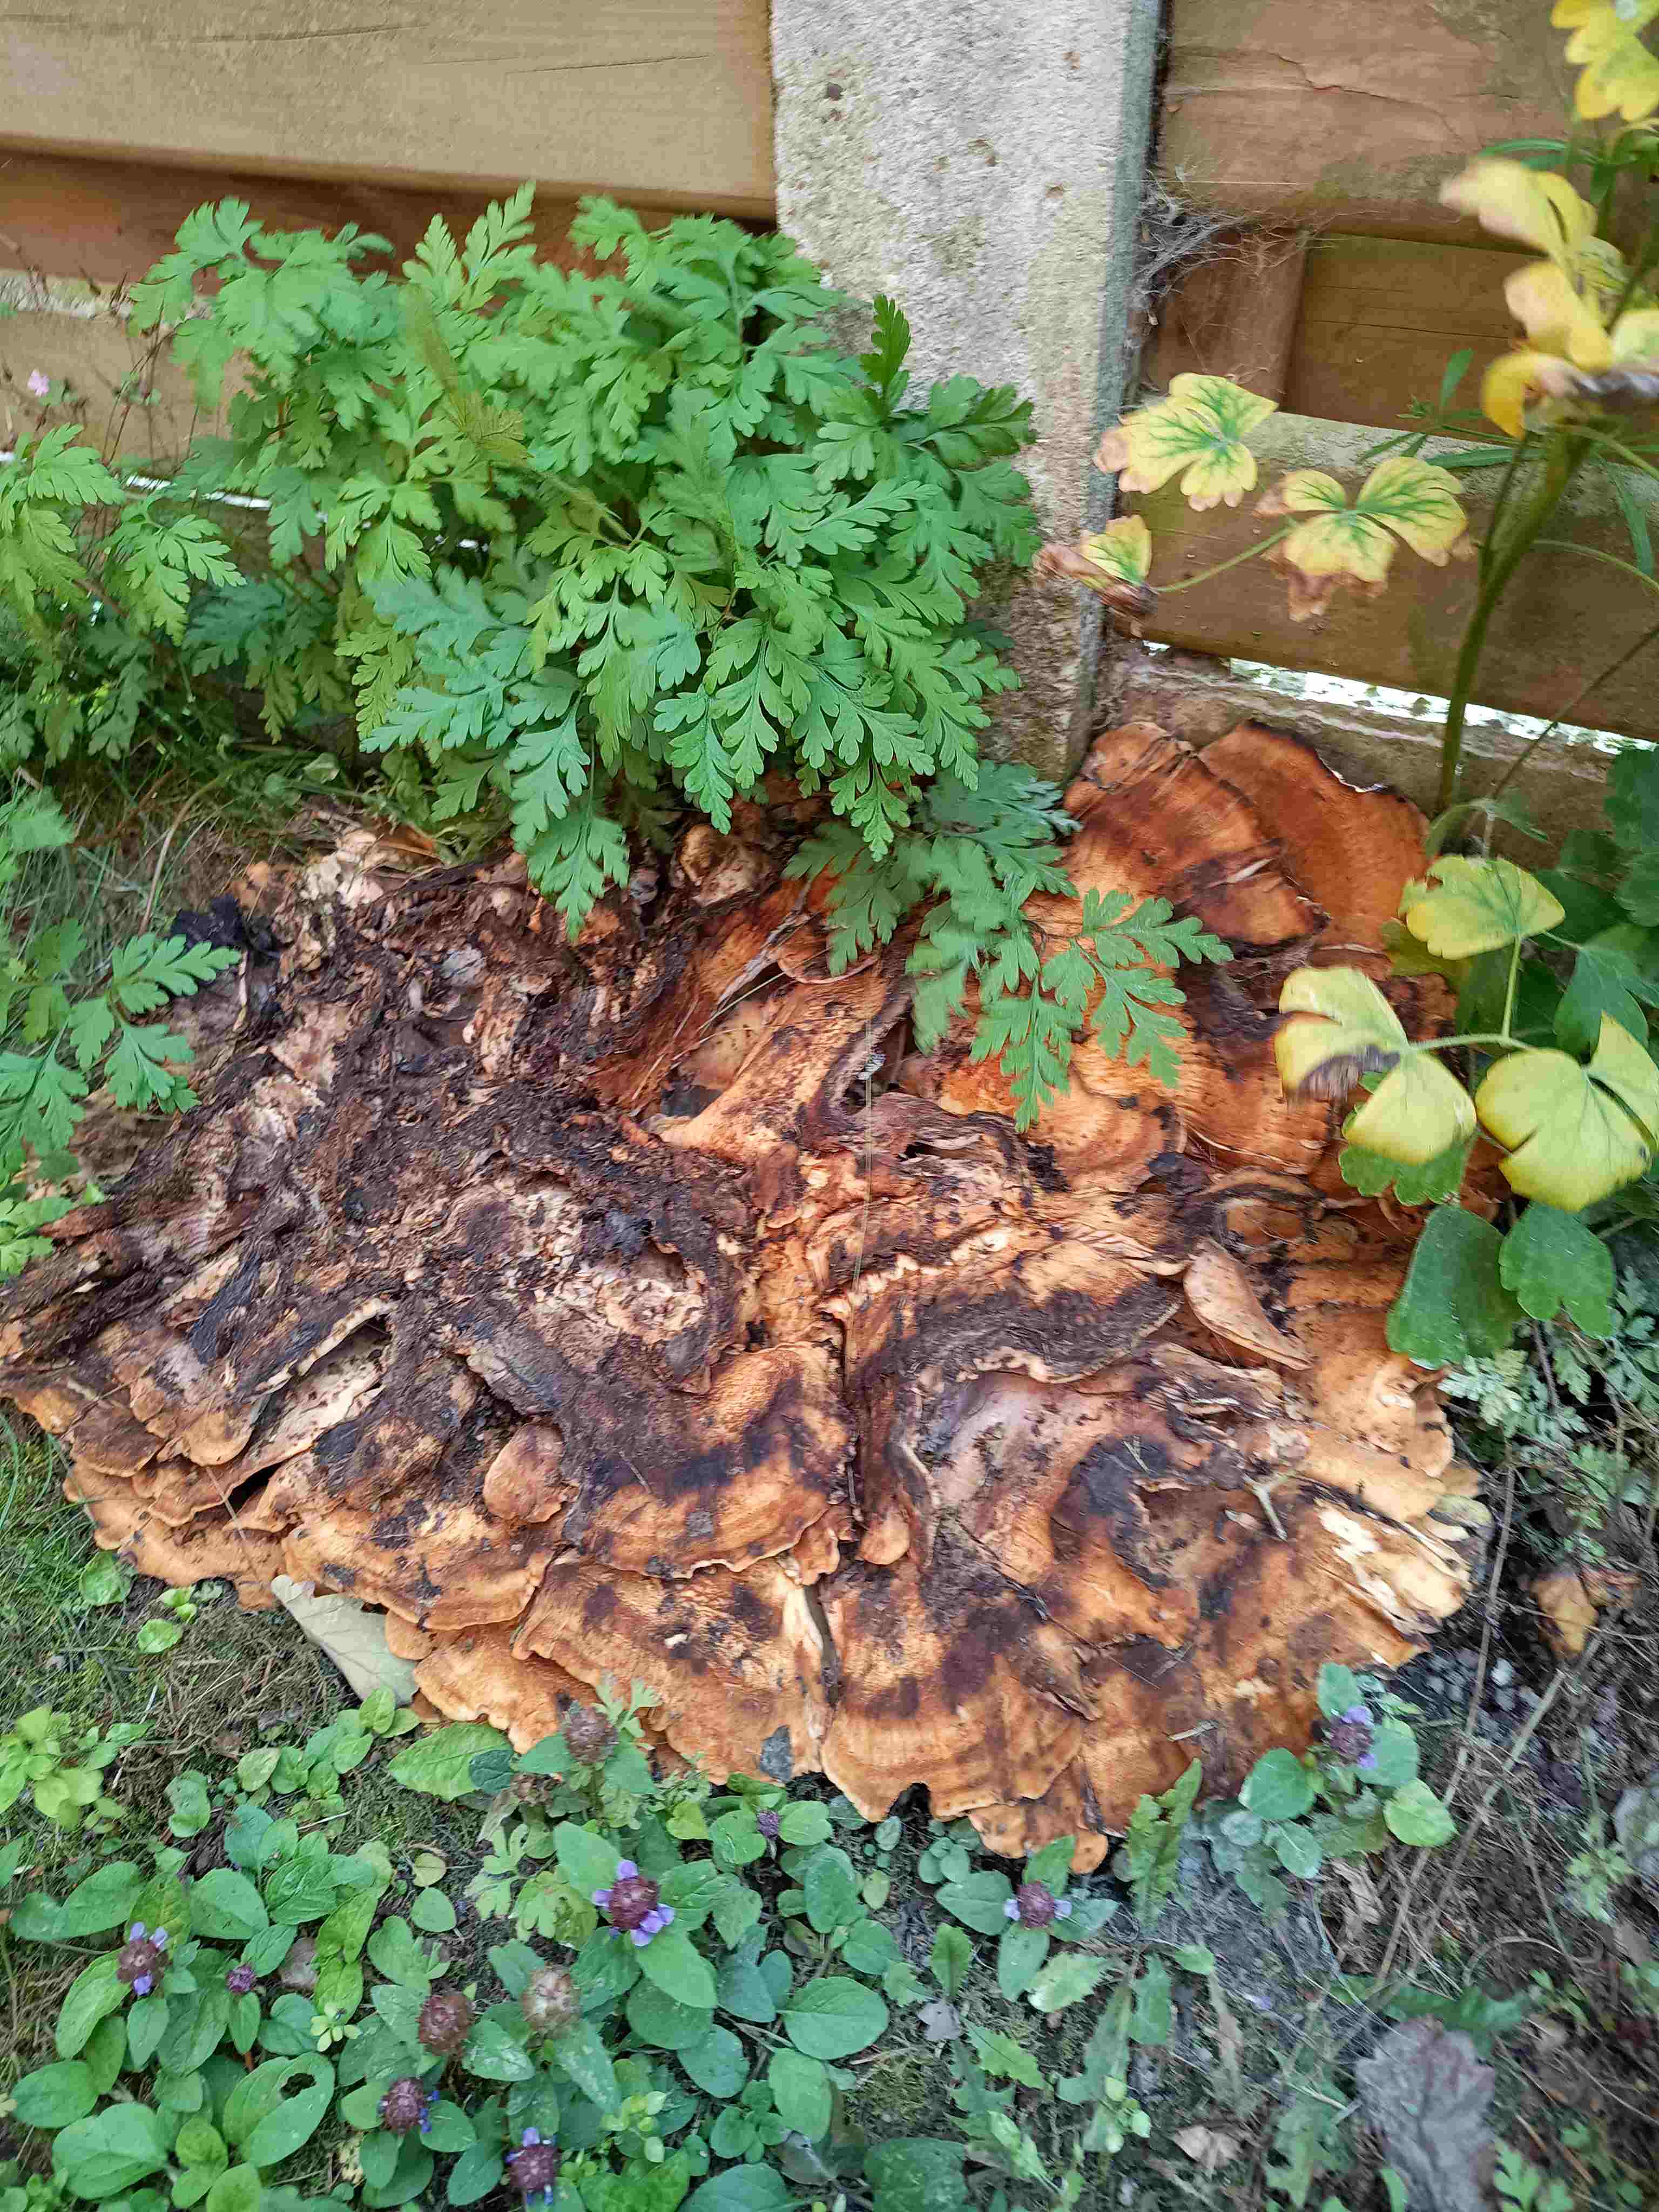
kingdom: Fungi
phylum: Basidiomycota
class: Agaricomycetes
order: Polyporales
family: Meripilaceae
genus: Meripilus
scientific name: Meripilus giganteus
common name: kæmpeporesvamp
